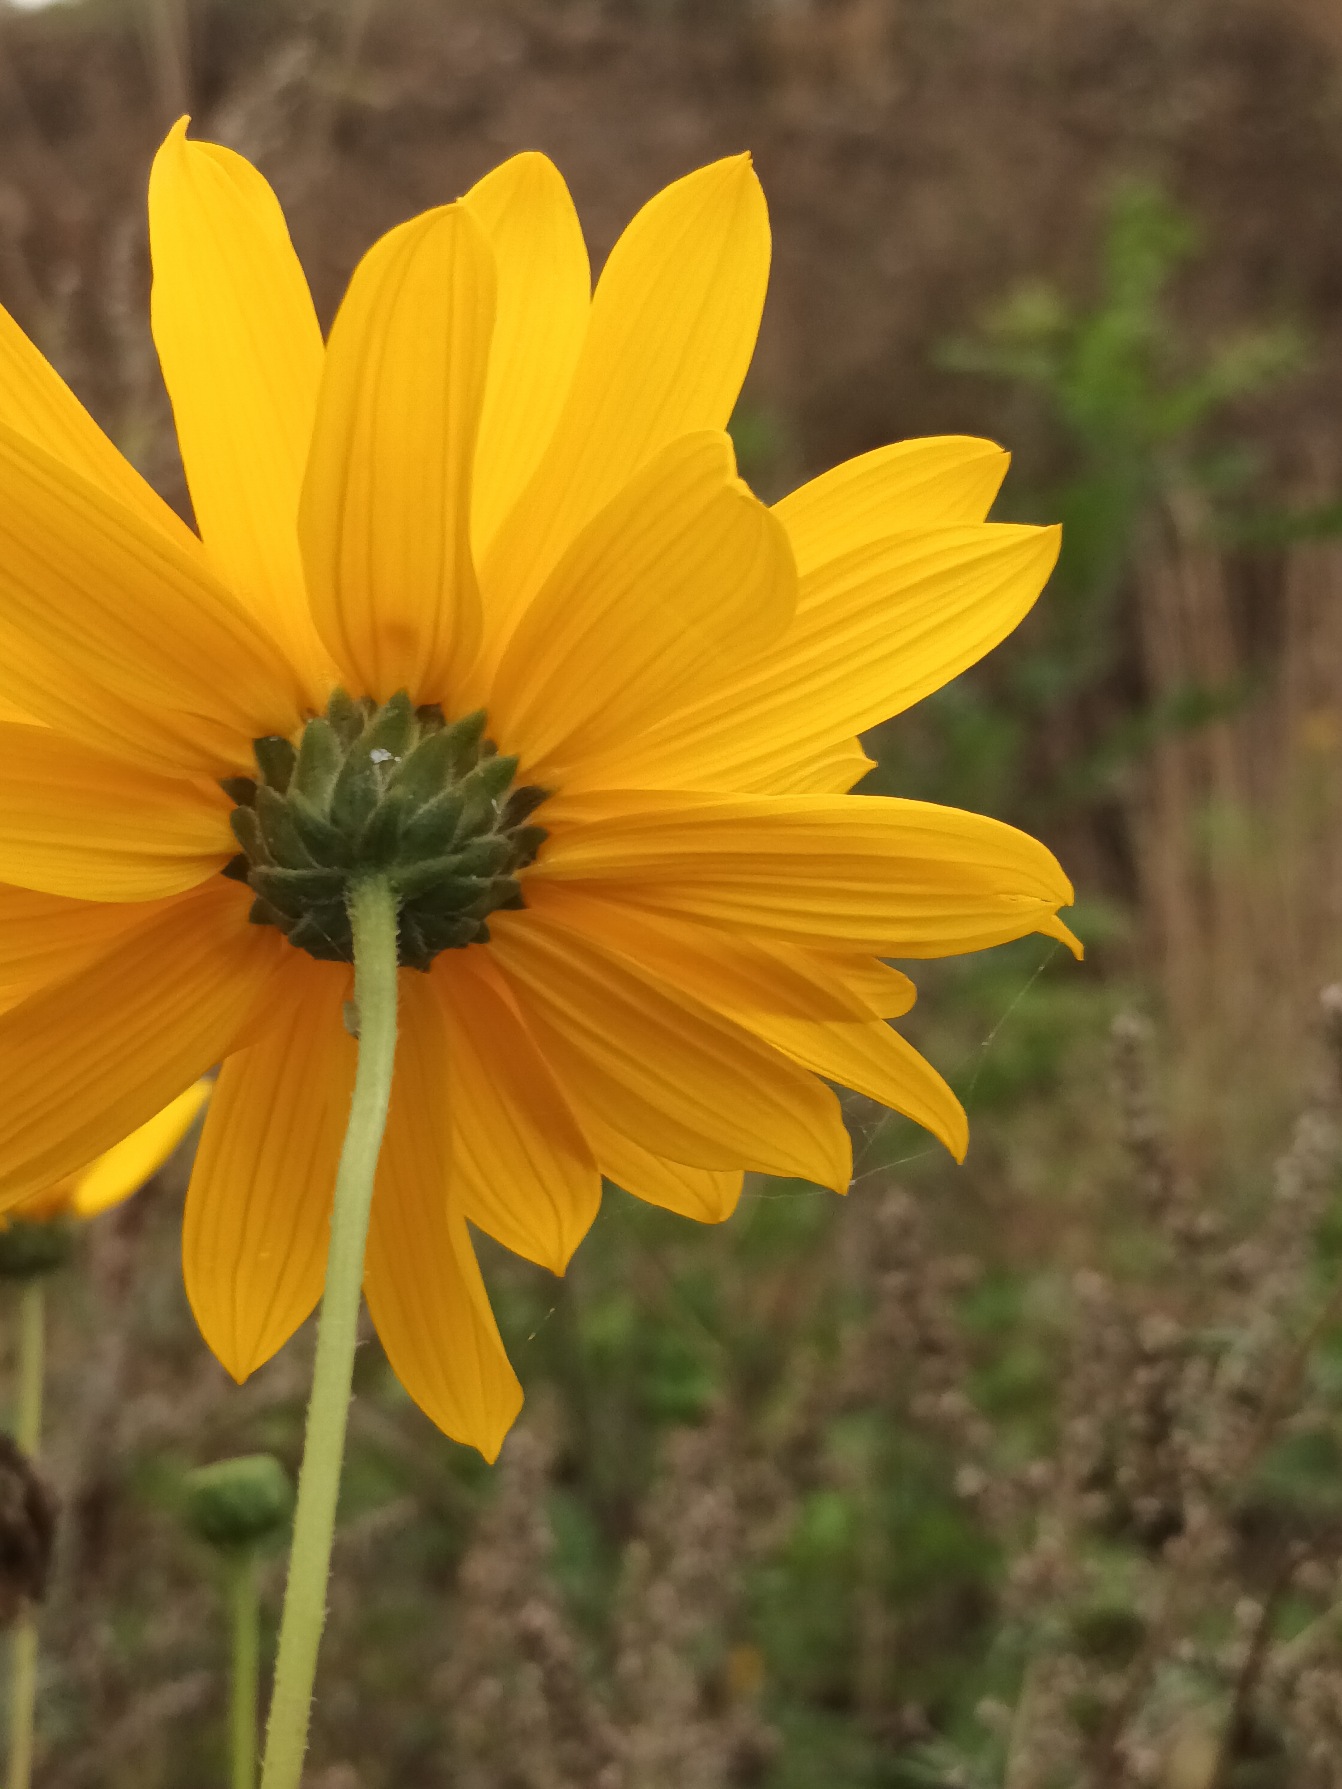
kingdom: Plantae
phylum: Tracheophyta
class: Magnoliopsida
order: Asterales
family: Asteraceae
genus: Helianthus
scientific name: Helianthus pauciflorus
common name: Staude-solsikke
